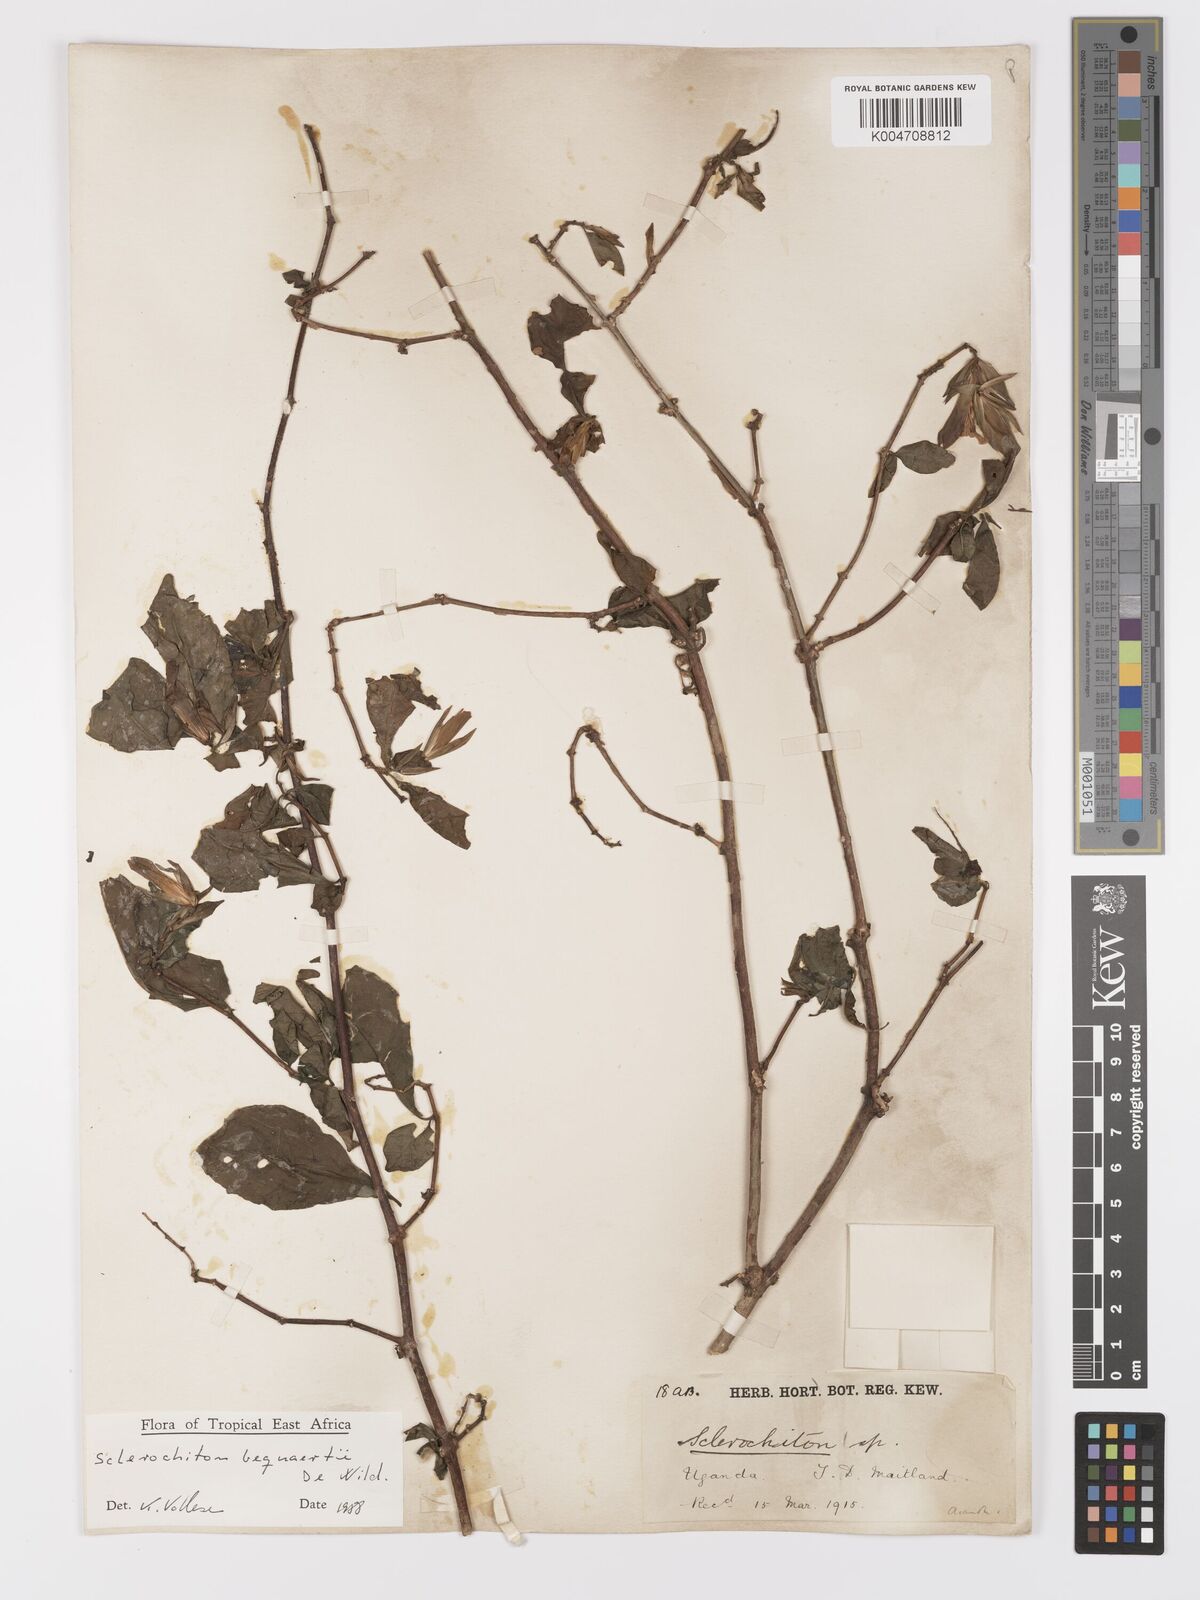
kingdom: Plantae
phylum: Tracheophyta
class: Magnoliopsida
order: Lamiales
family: Acanthaceae
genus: Sclerochiton
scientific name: Sclerochiton bequaertii
